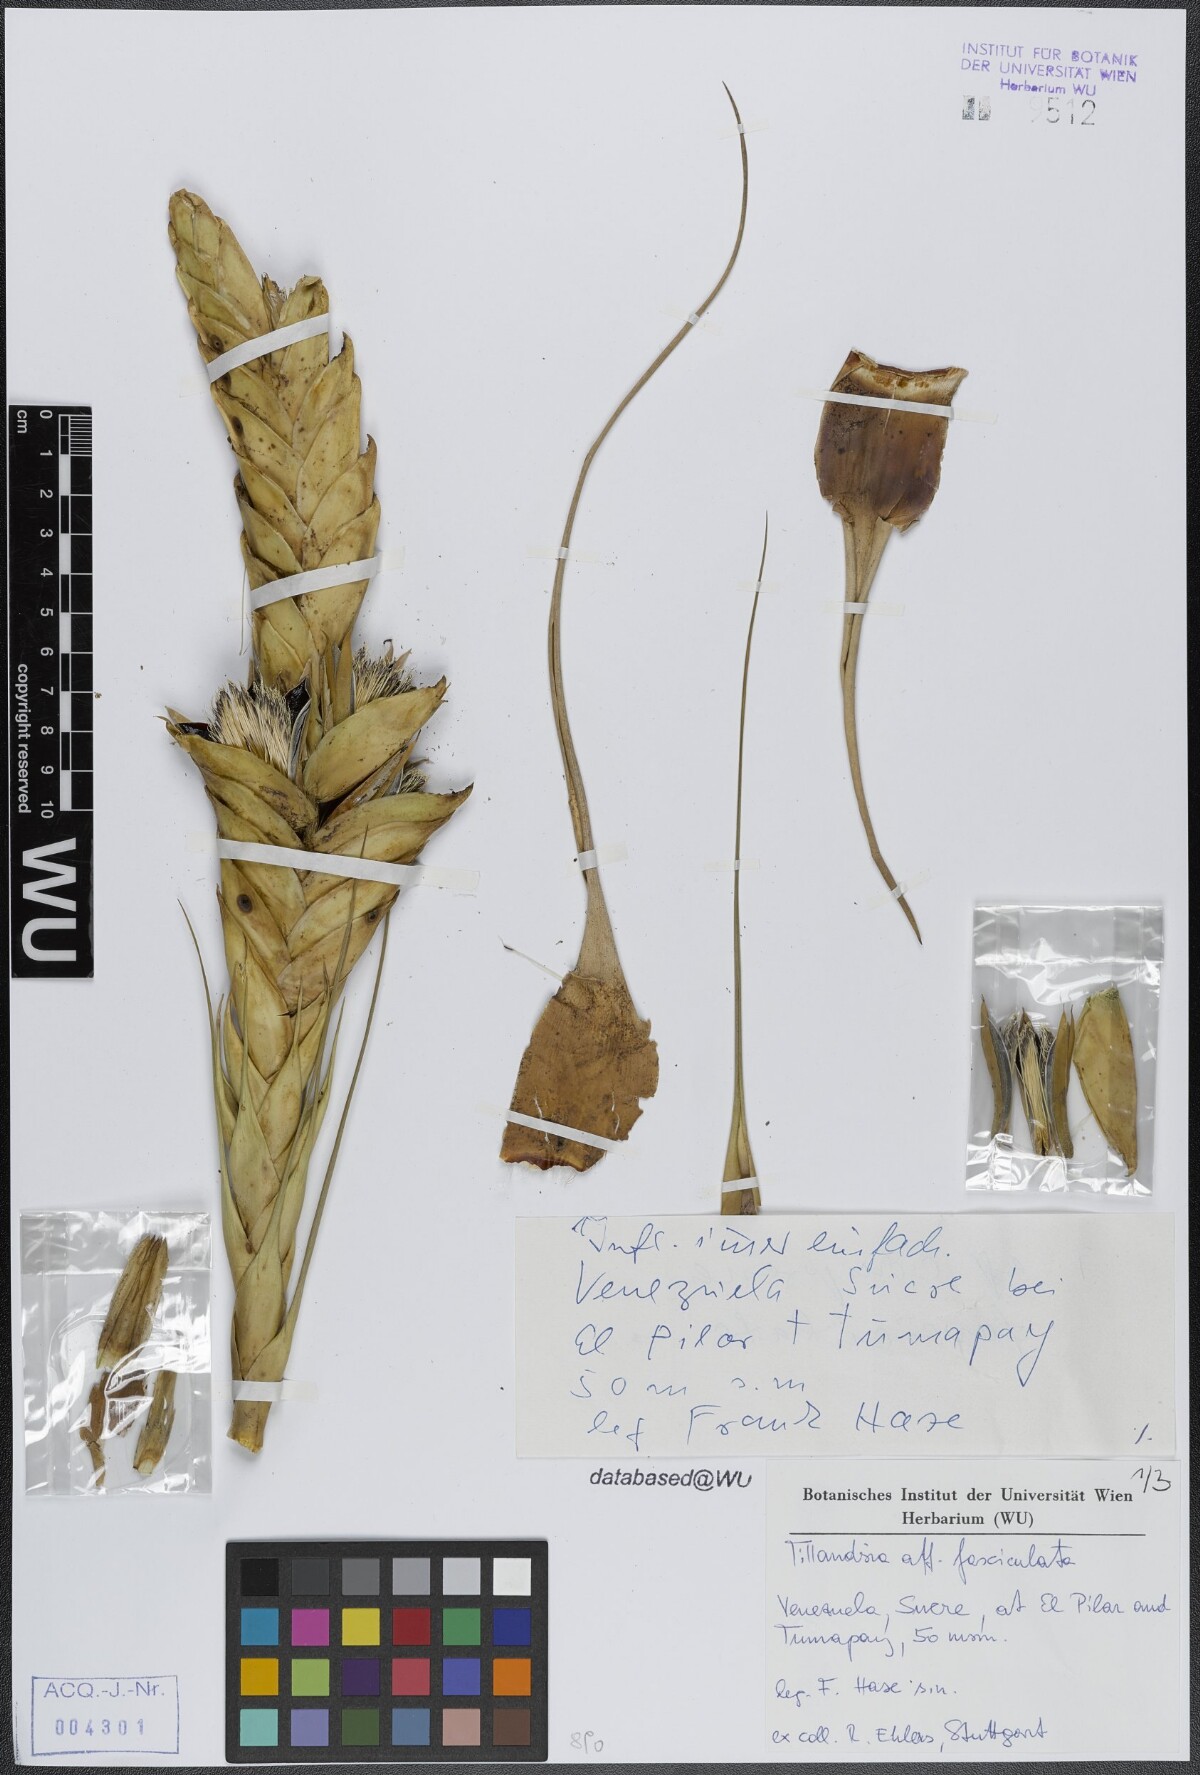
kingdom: Plantae
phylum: Tracheophyta
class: Liliopsida
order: Poales
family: Bromeliaceae
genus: Tillandsia
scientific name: Tillandsia fasciculata
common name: Giant airplant
